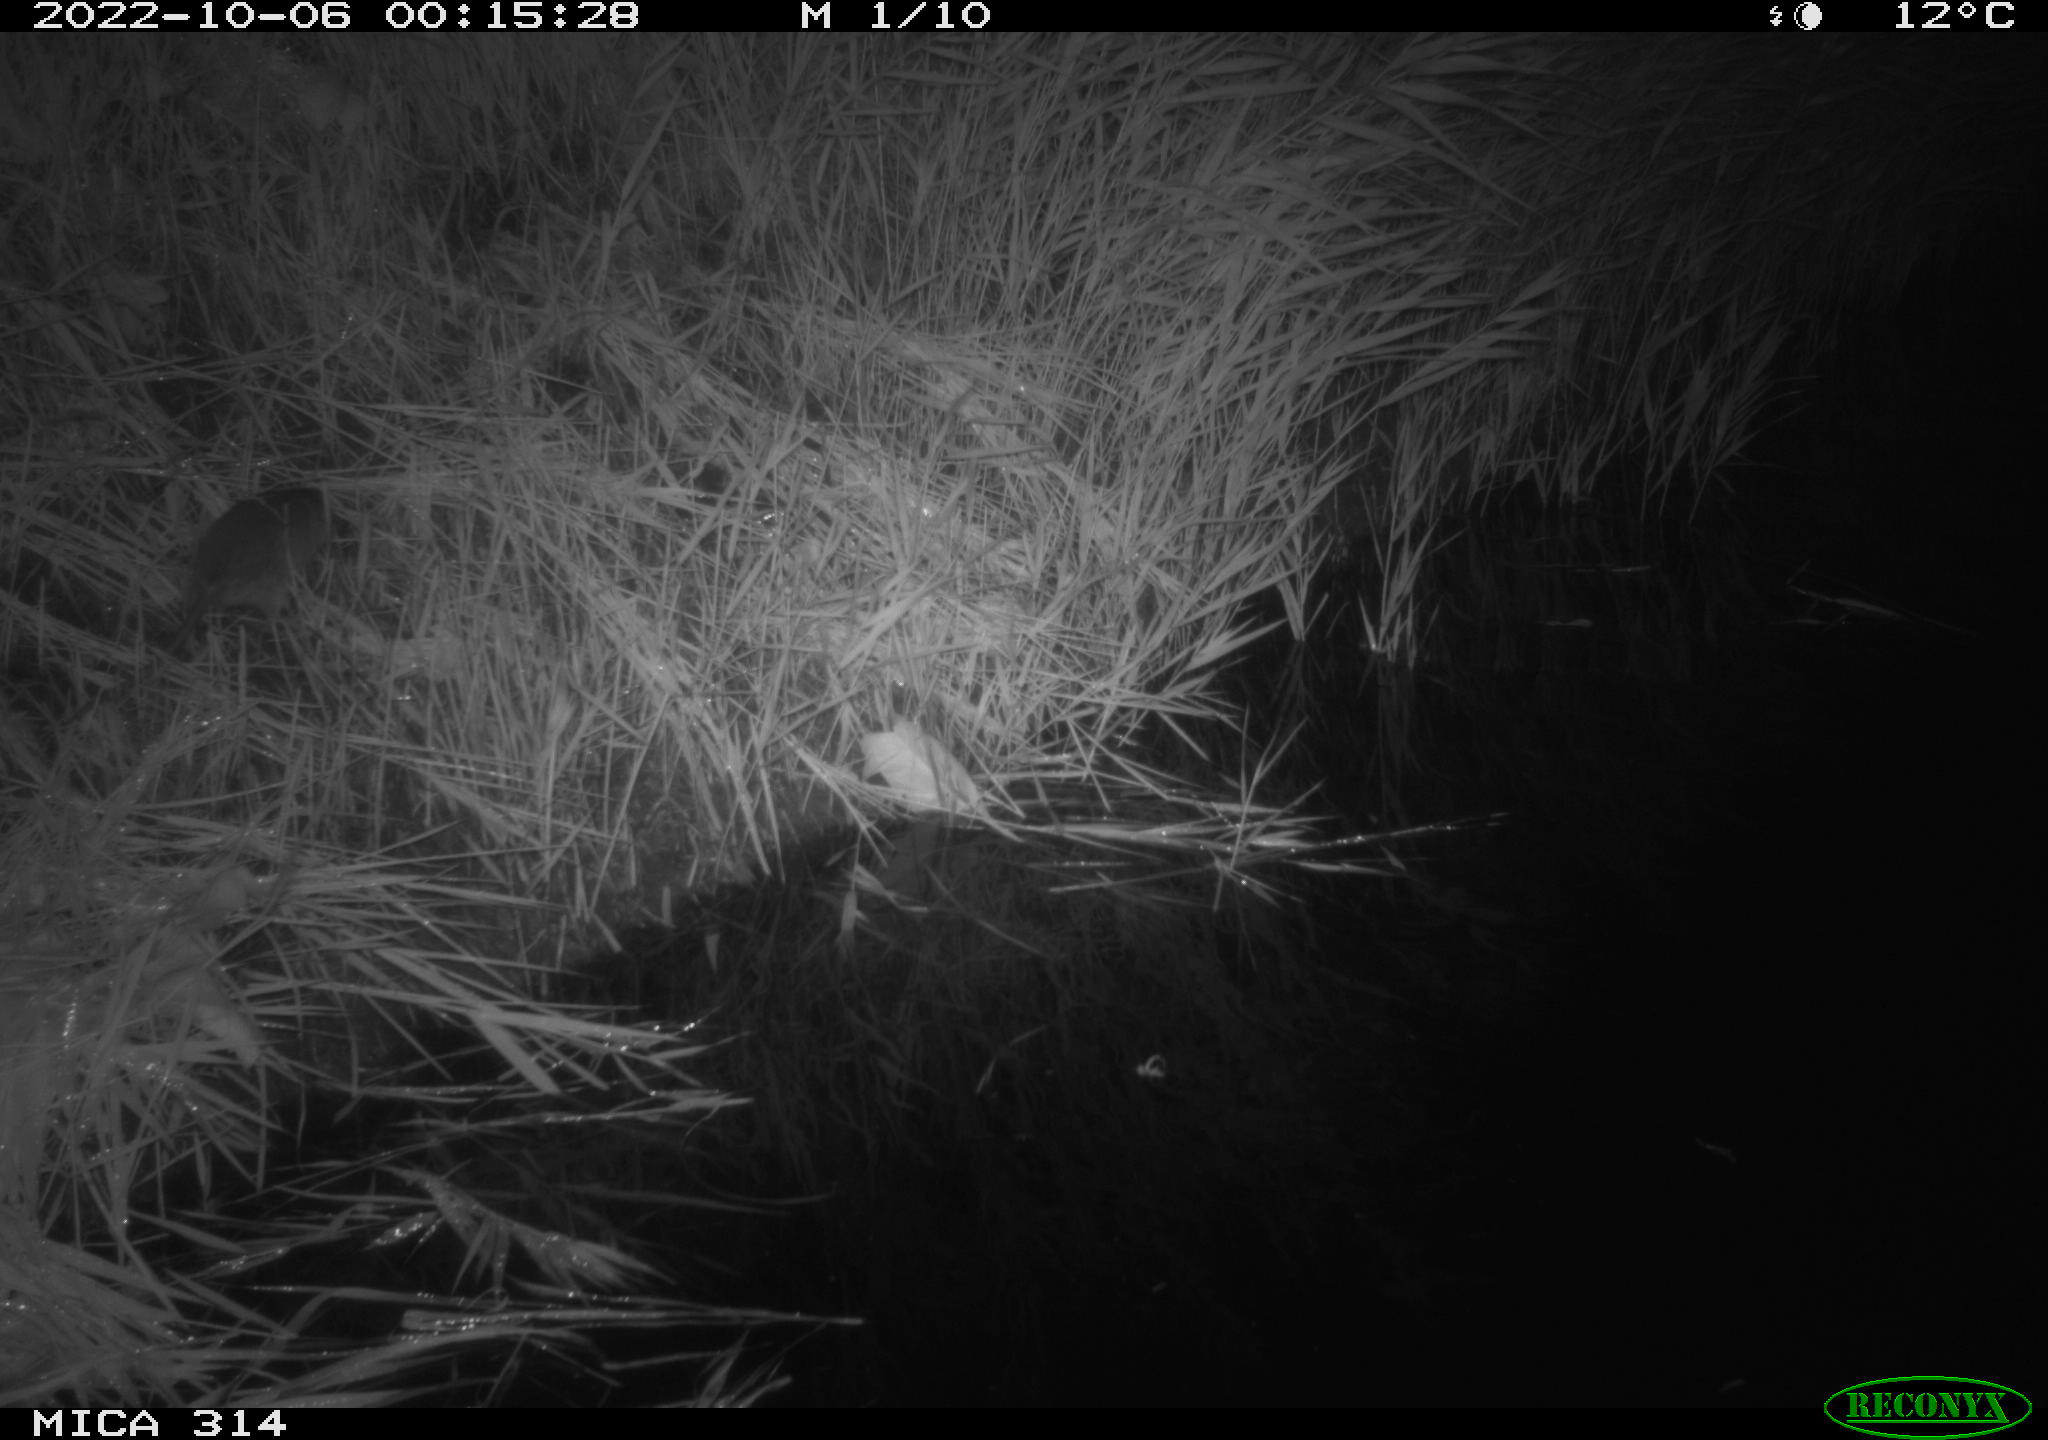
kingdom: Animalia
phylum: Chordata
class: Mammalia
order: Rodentia
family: Cricetidae
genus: Ondatra
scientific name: Ondatra zibethicus
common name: Muskrat
